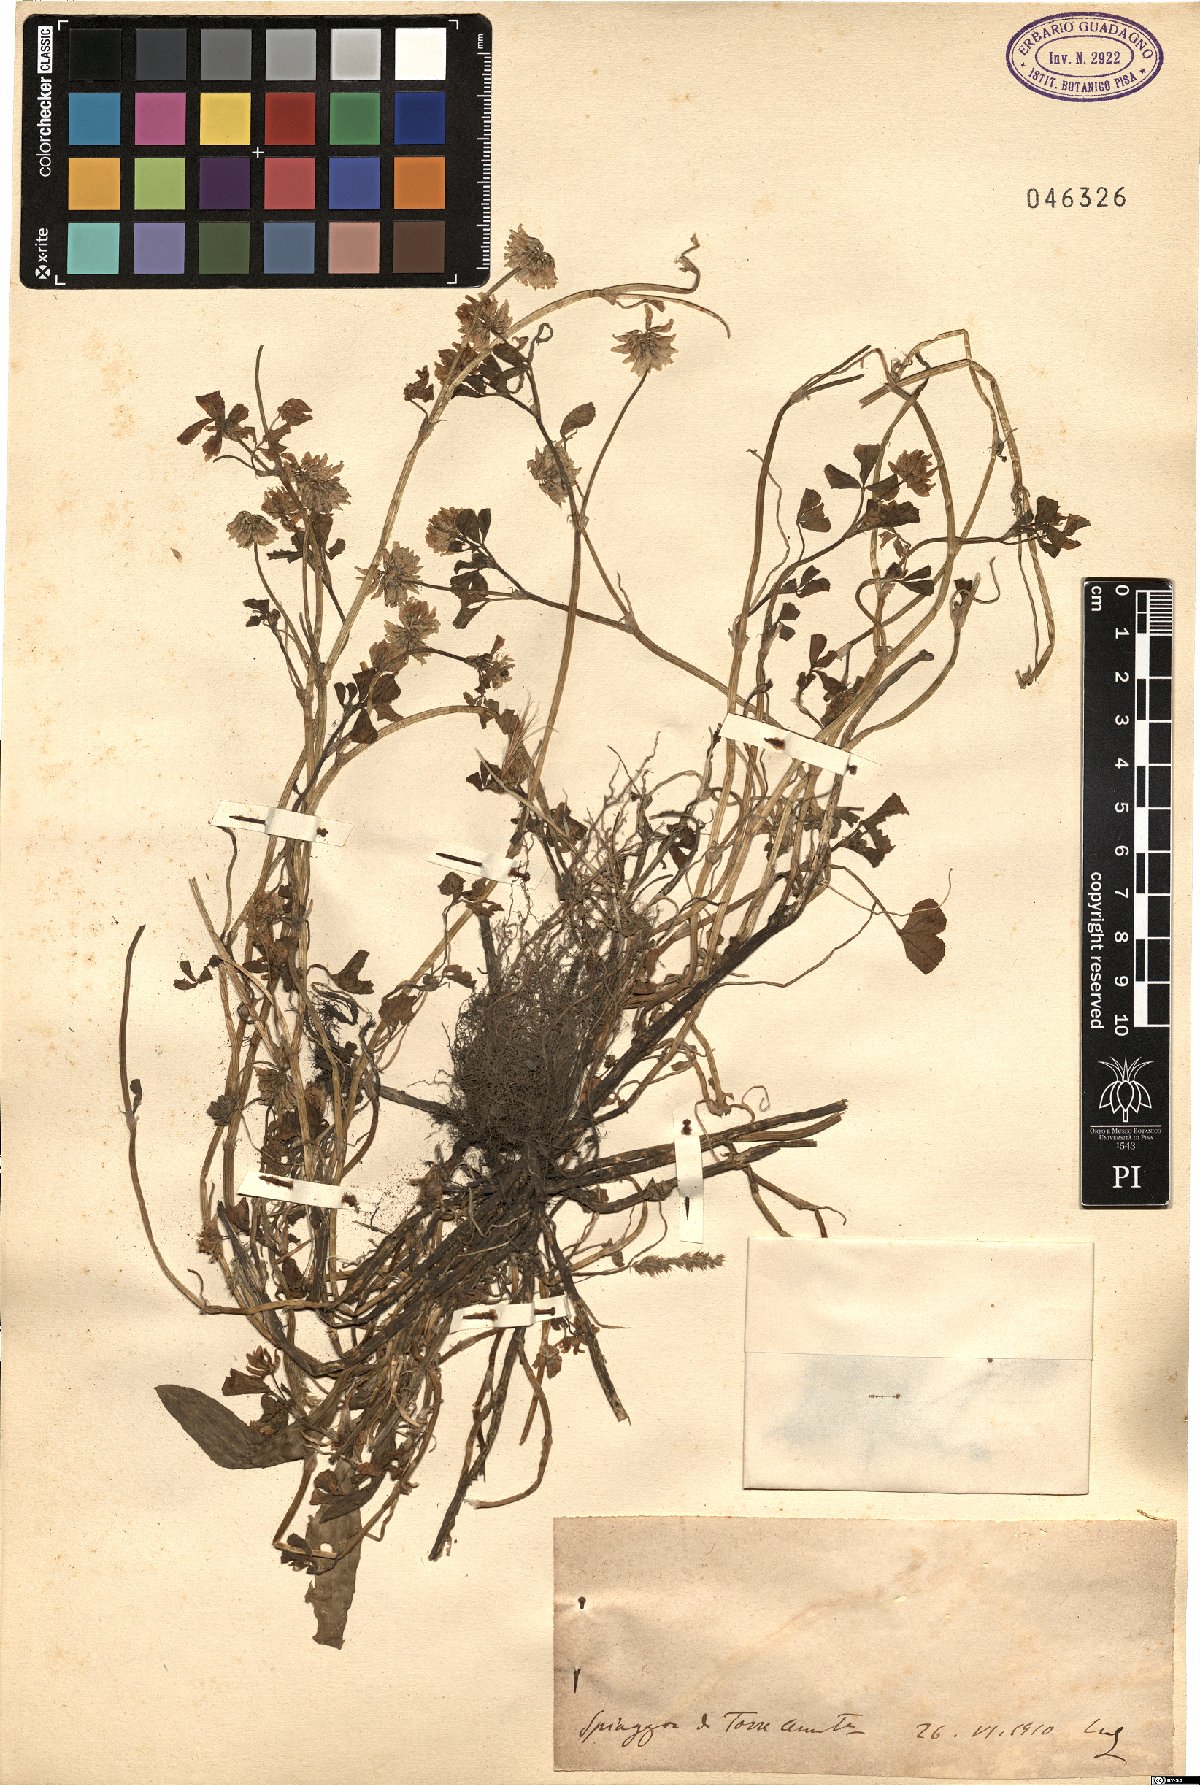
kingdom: Plantae
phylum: Tracheophyta
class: Magnoliopsida
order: Fabales
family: Fabaceae
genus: Trifolium
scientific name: Trifolium
